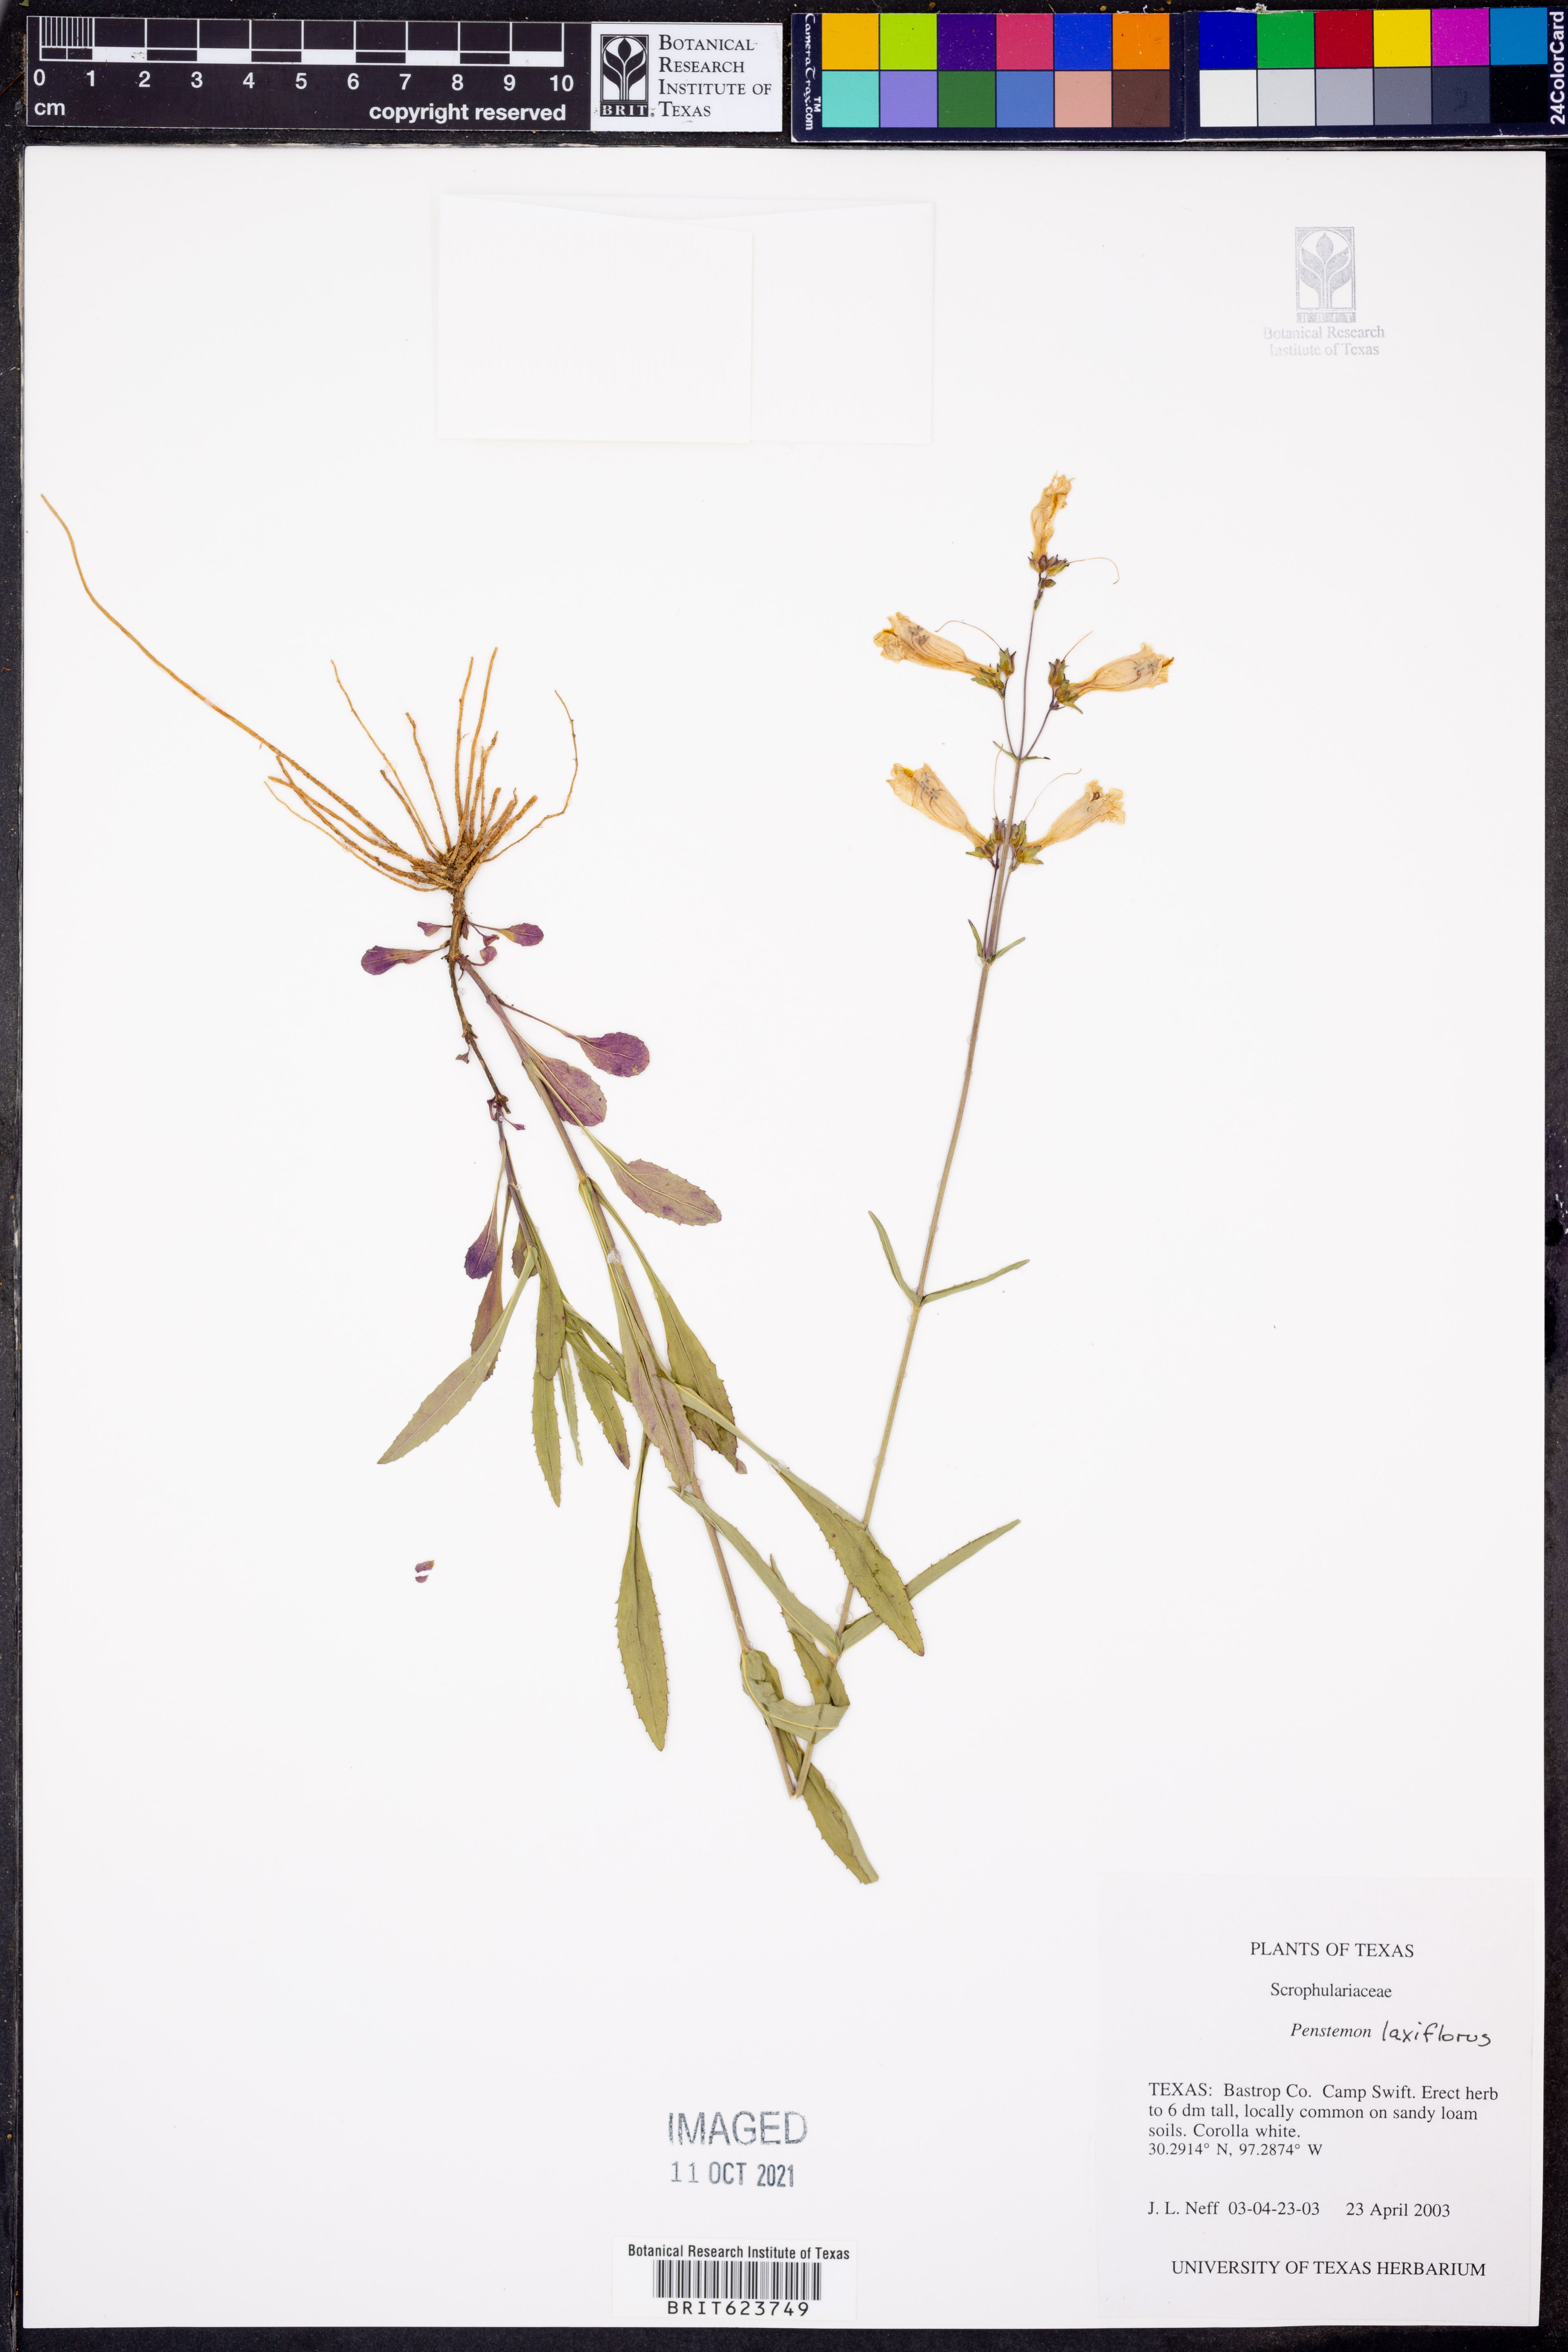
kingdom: Plantae
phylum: Tracheophyta
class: Magnoliopsida
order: Lamiales
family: Plantaginaceae
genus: Penstemon
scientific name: Penstemon laxiflorus
